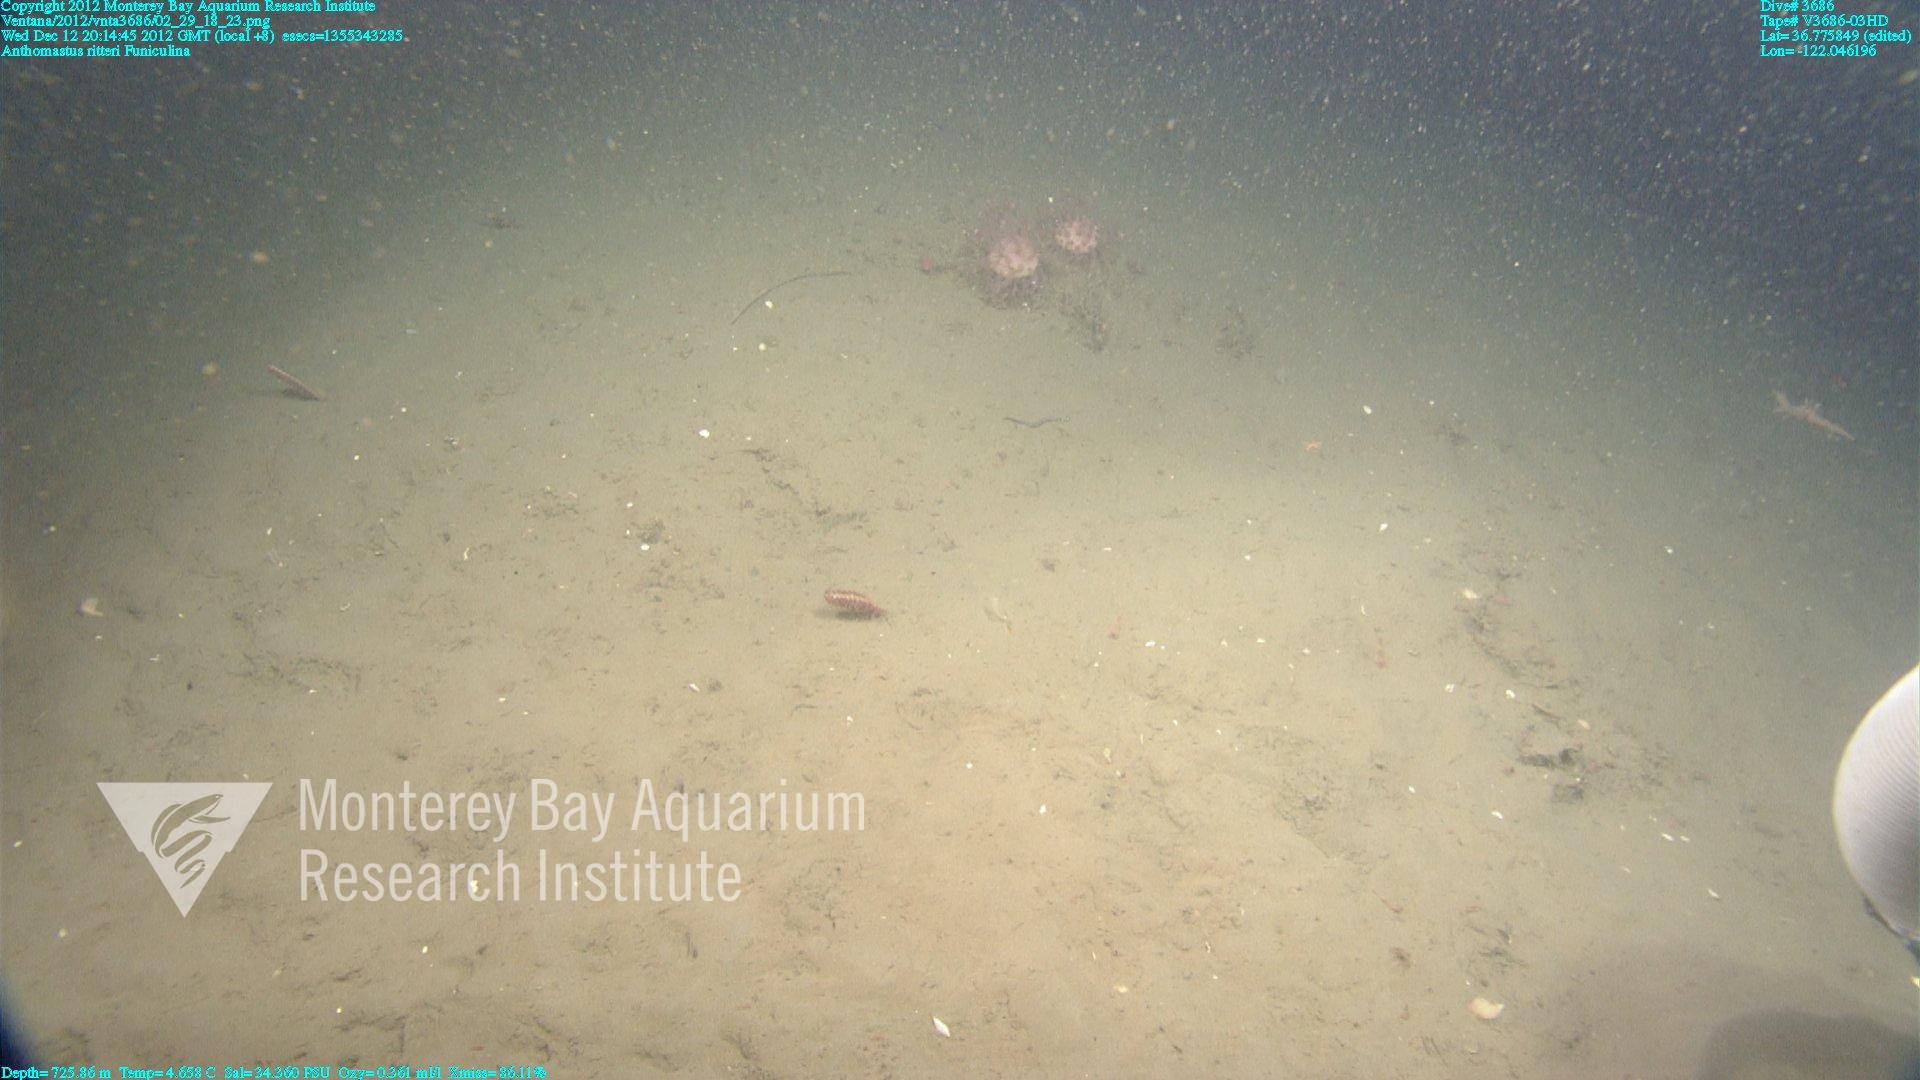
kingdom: Animalia
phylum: Cnidaria
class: Anthozoa
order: Scleralcyonacea
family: Coralliidae
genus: Heteropolypus
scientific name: Heteropolypus ritteri
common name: Ritter's soft coral
